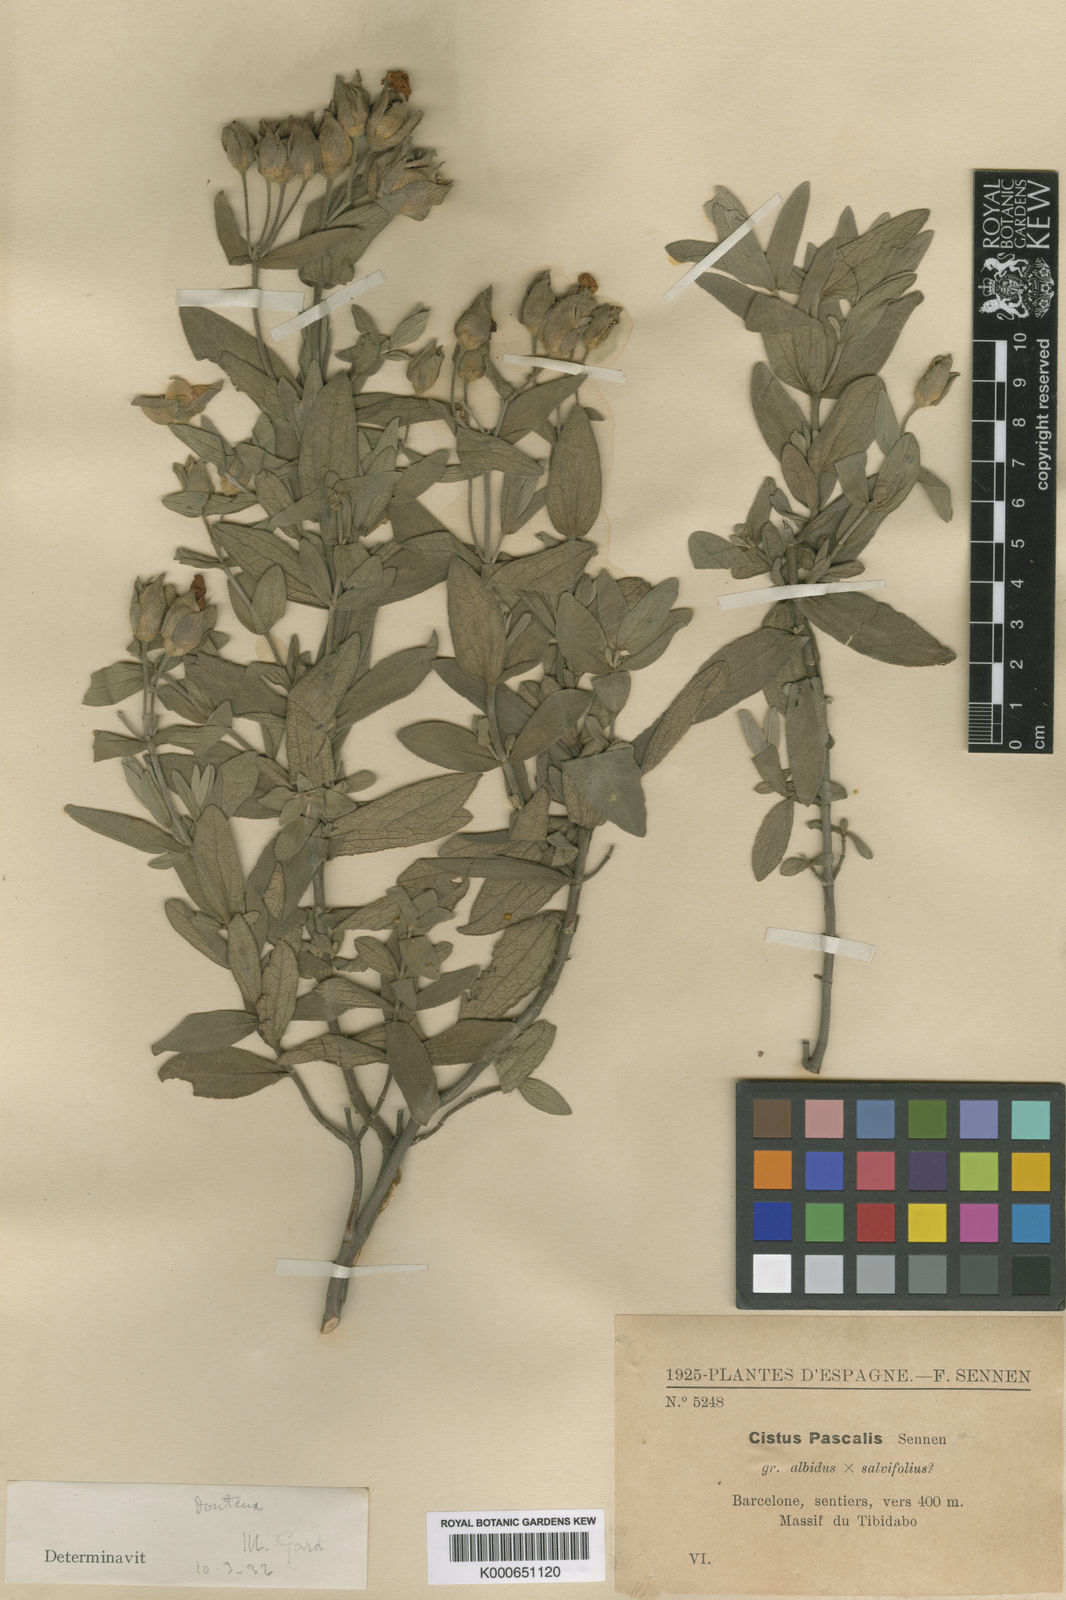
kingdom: Plantae
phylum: Tracheophyta
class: Magnoliopsida
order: Malvales
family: Cistaceae
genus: Cistus
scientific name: Cistus albidus
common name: White-leaf rock-rose
